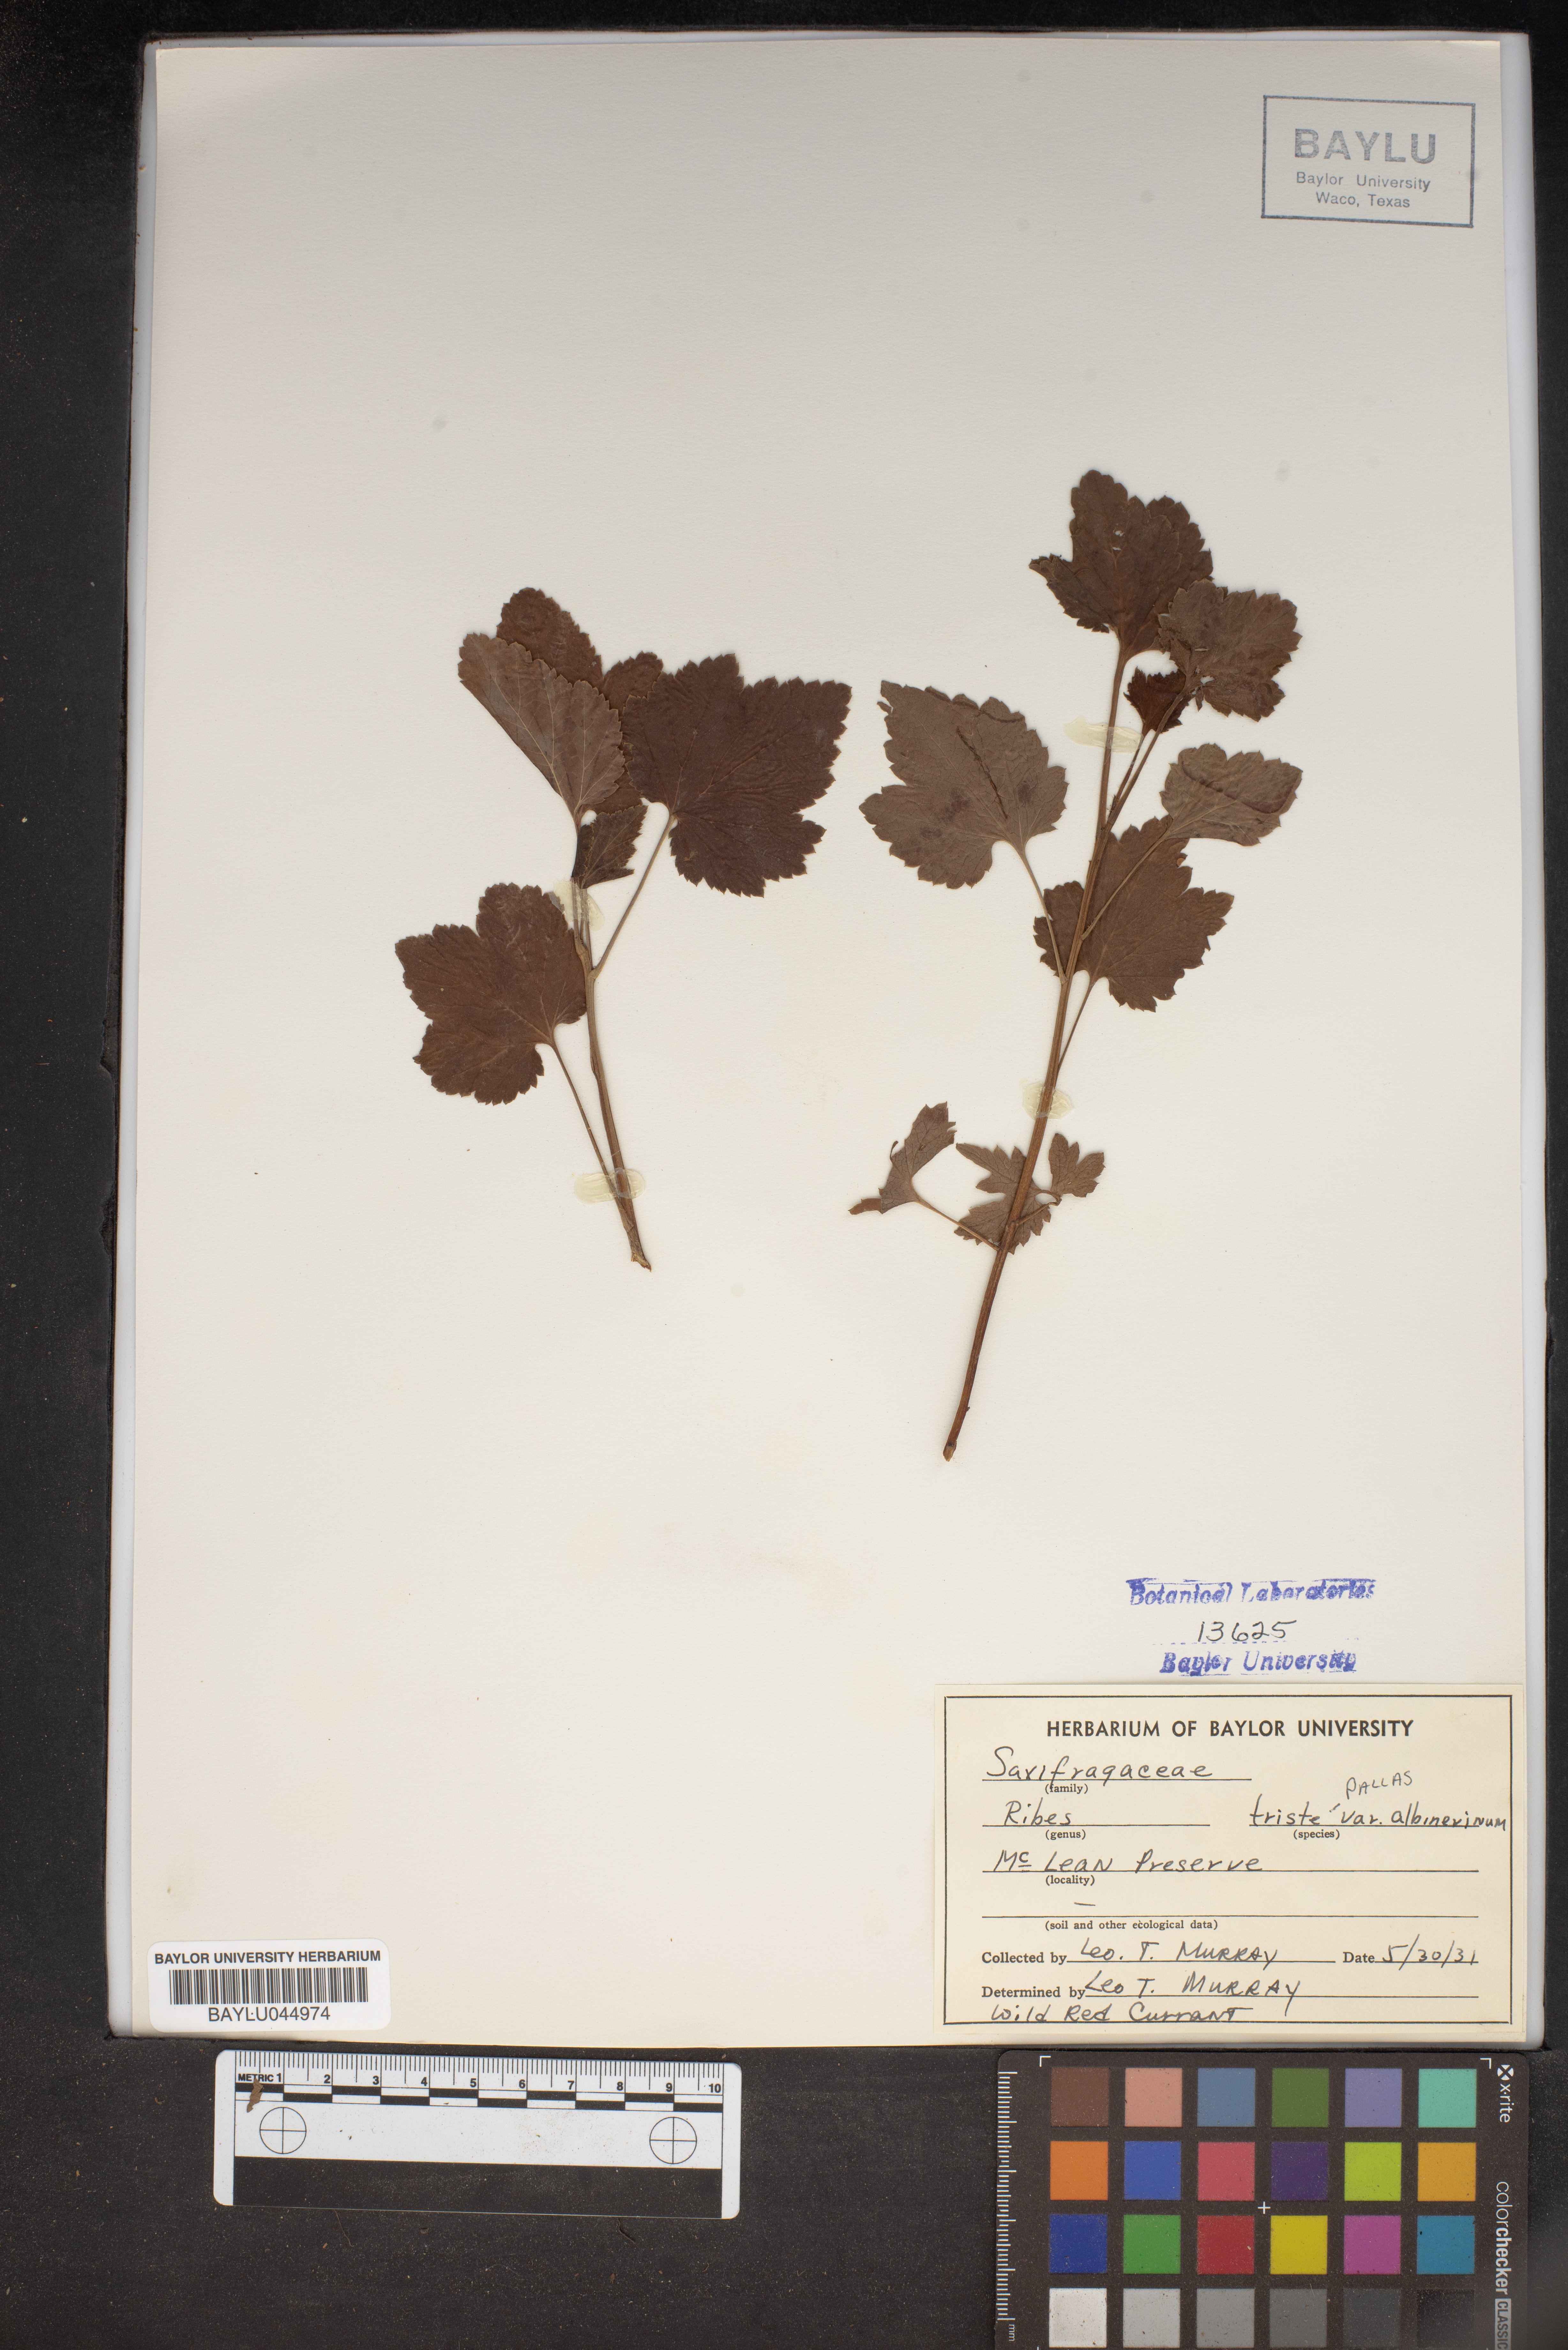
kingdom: Plantae
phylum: Tracheophyta
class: Magnoliopsida
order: Saxifragales
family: Grossulariaceae
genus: Ribes
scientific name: Ribes triste
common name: Swamp red currant
